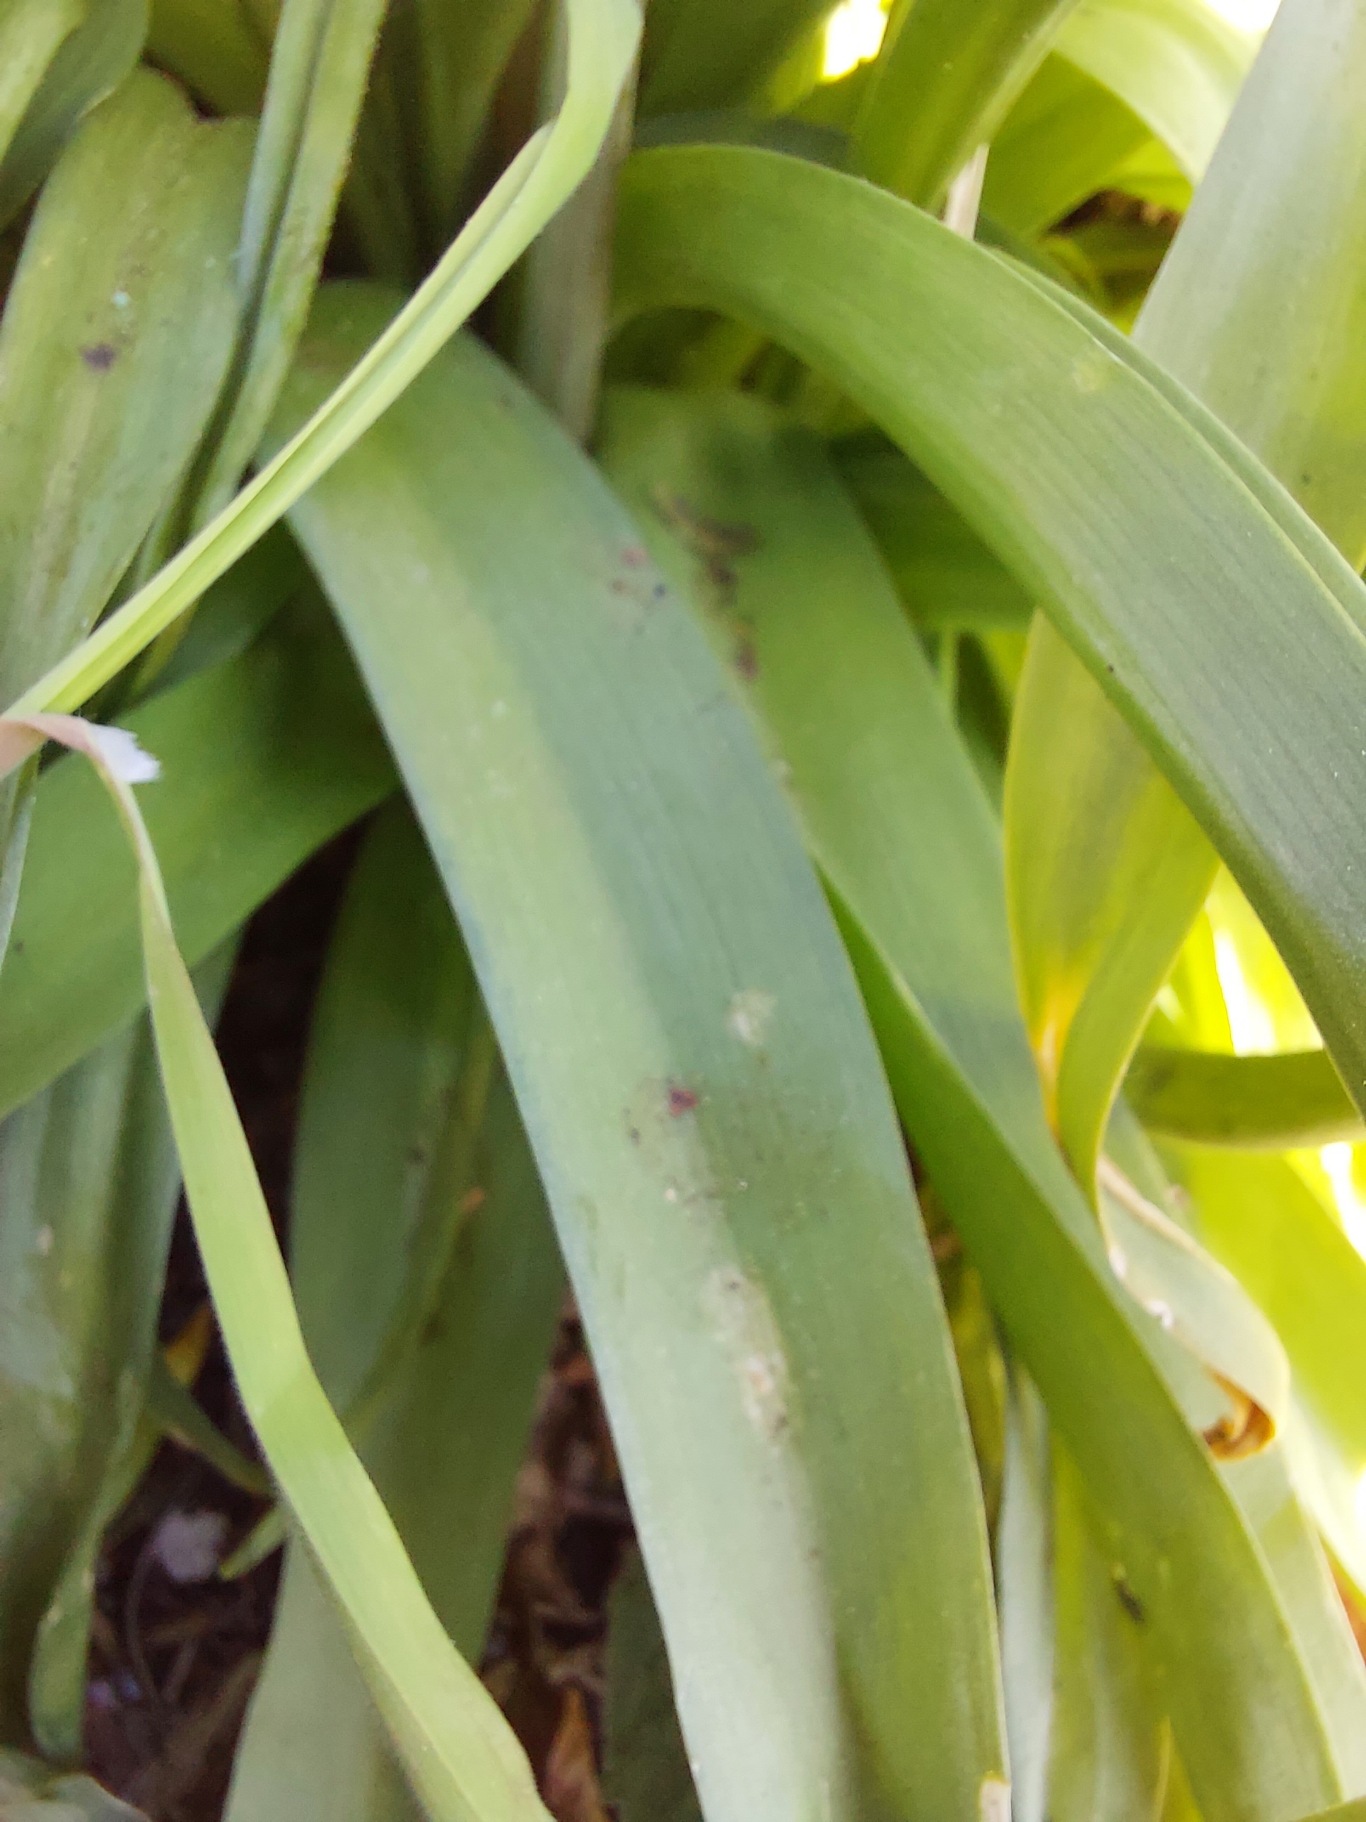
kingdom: Plantae
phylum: Tracheophyta
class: Liliopsida
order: Asparagales
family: Asparagaceae
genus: Hyacinthoides
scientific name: Hyacinthoides massartiana
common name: Hybrid-klokkeskilla
